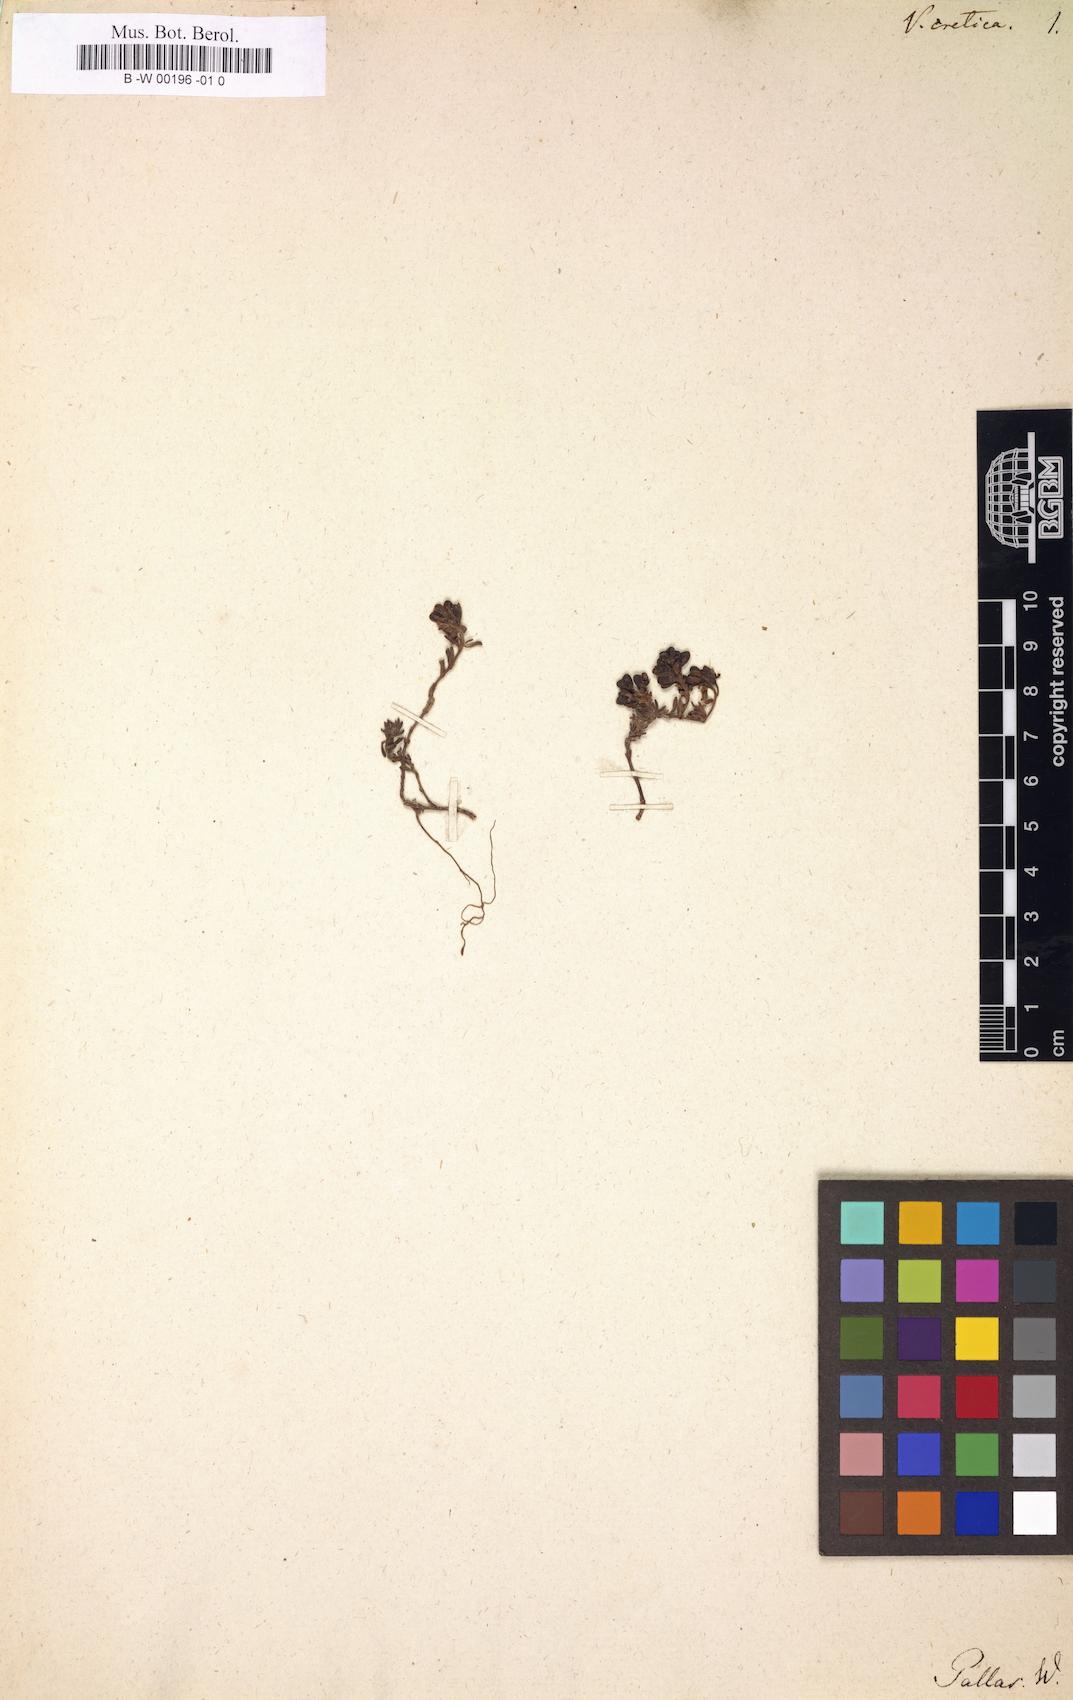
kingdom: Plantae
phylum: Tracheophyta
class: Magnoliopsida
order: Lamiales
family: Plantaginaceae
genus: Veronica
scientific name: Veronica thymifolia
